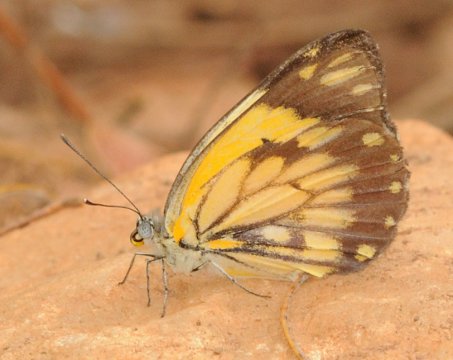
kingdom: Animalia
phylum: Arthropoda
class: Insecta
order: Lepidoptera
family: Pieridae
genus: Belenois
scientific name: Belenois creona
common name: African Caper
